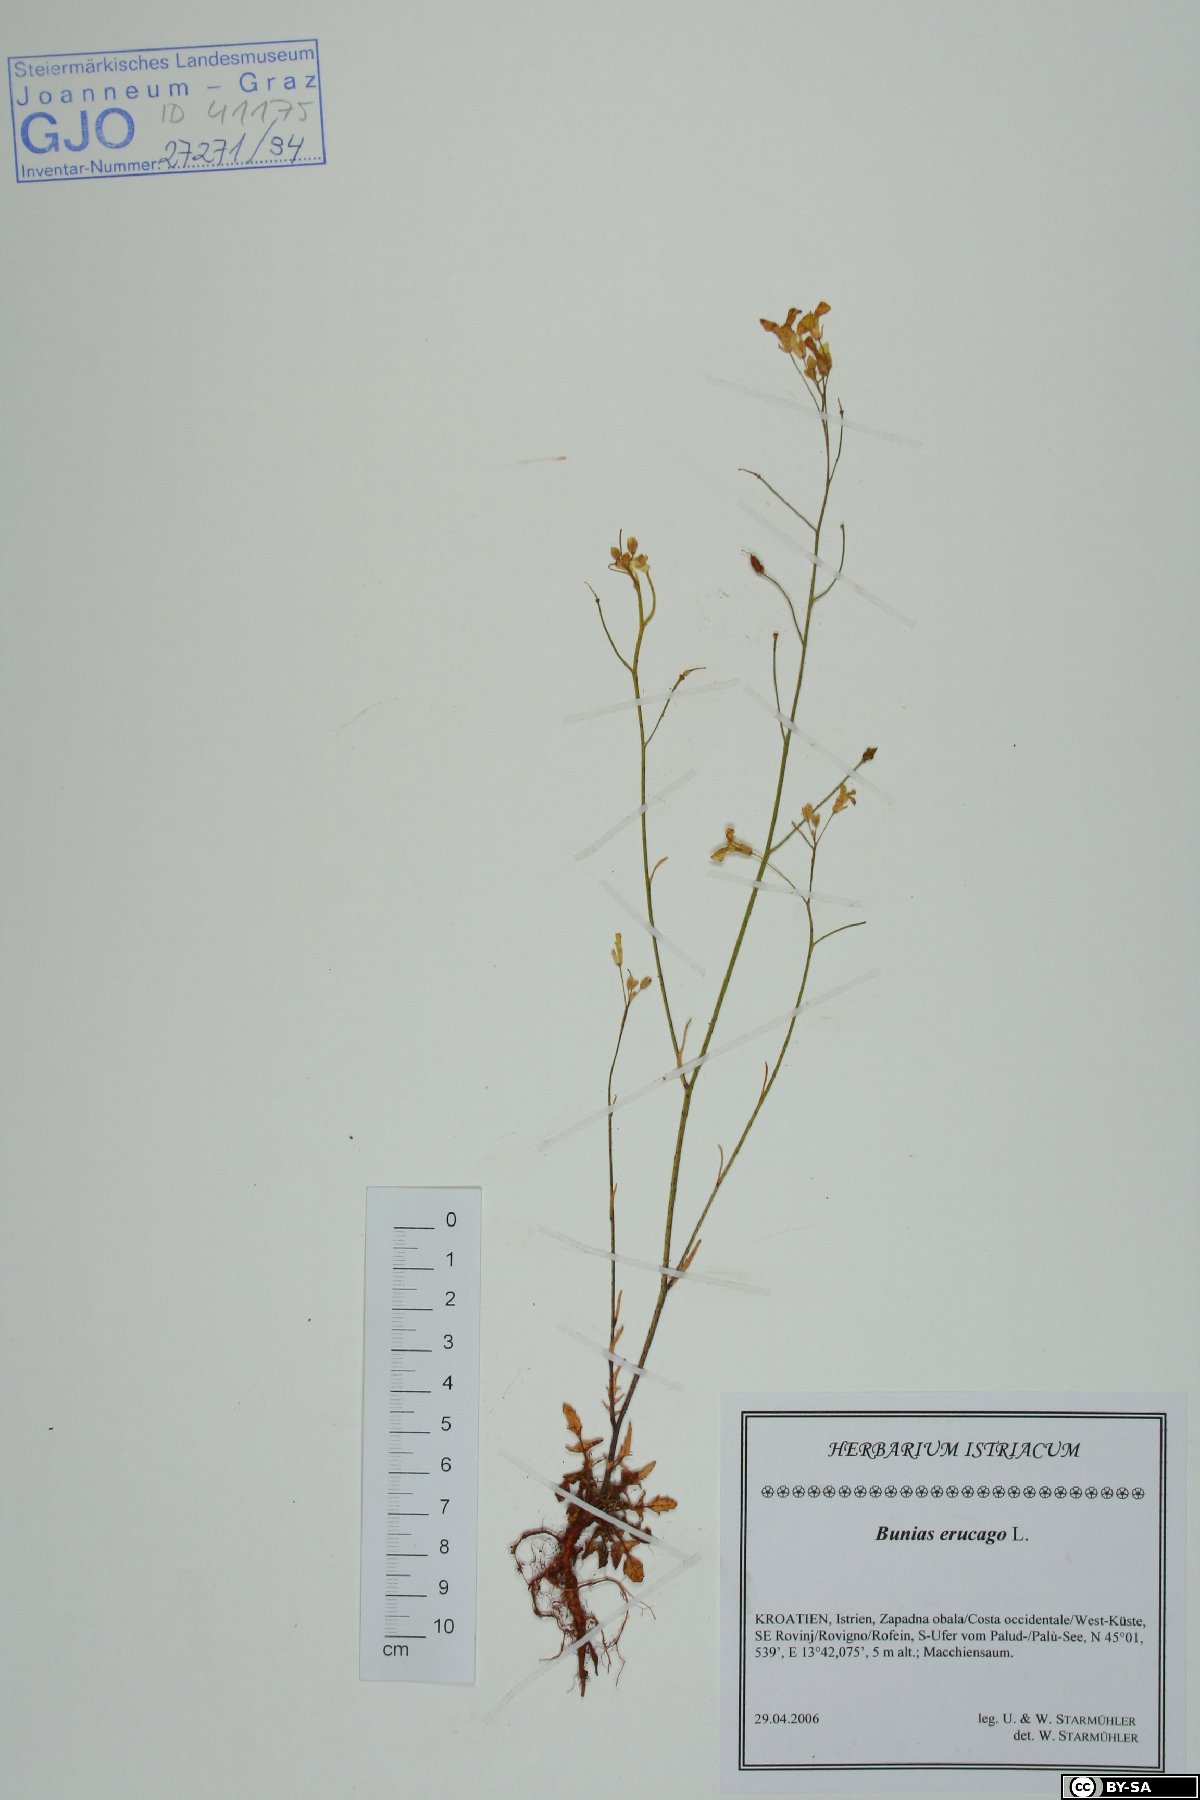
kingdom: Plantae
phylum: Tracheophyta
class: Magnoliopsida
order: Brassicales
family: Brassicaceae
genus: Bunias
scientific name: Bunias erucago
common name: Southern warty-cabbage
